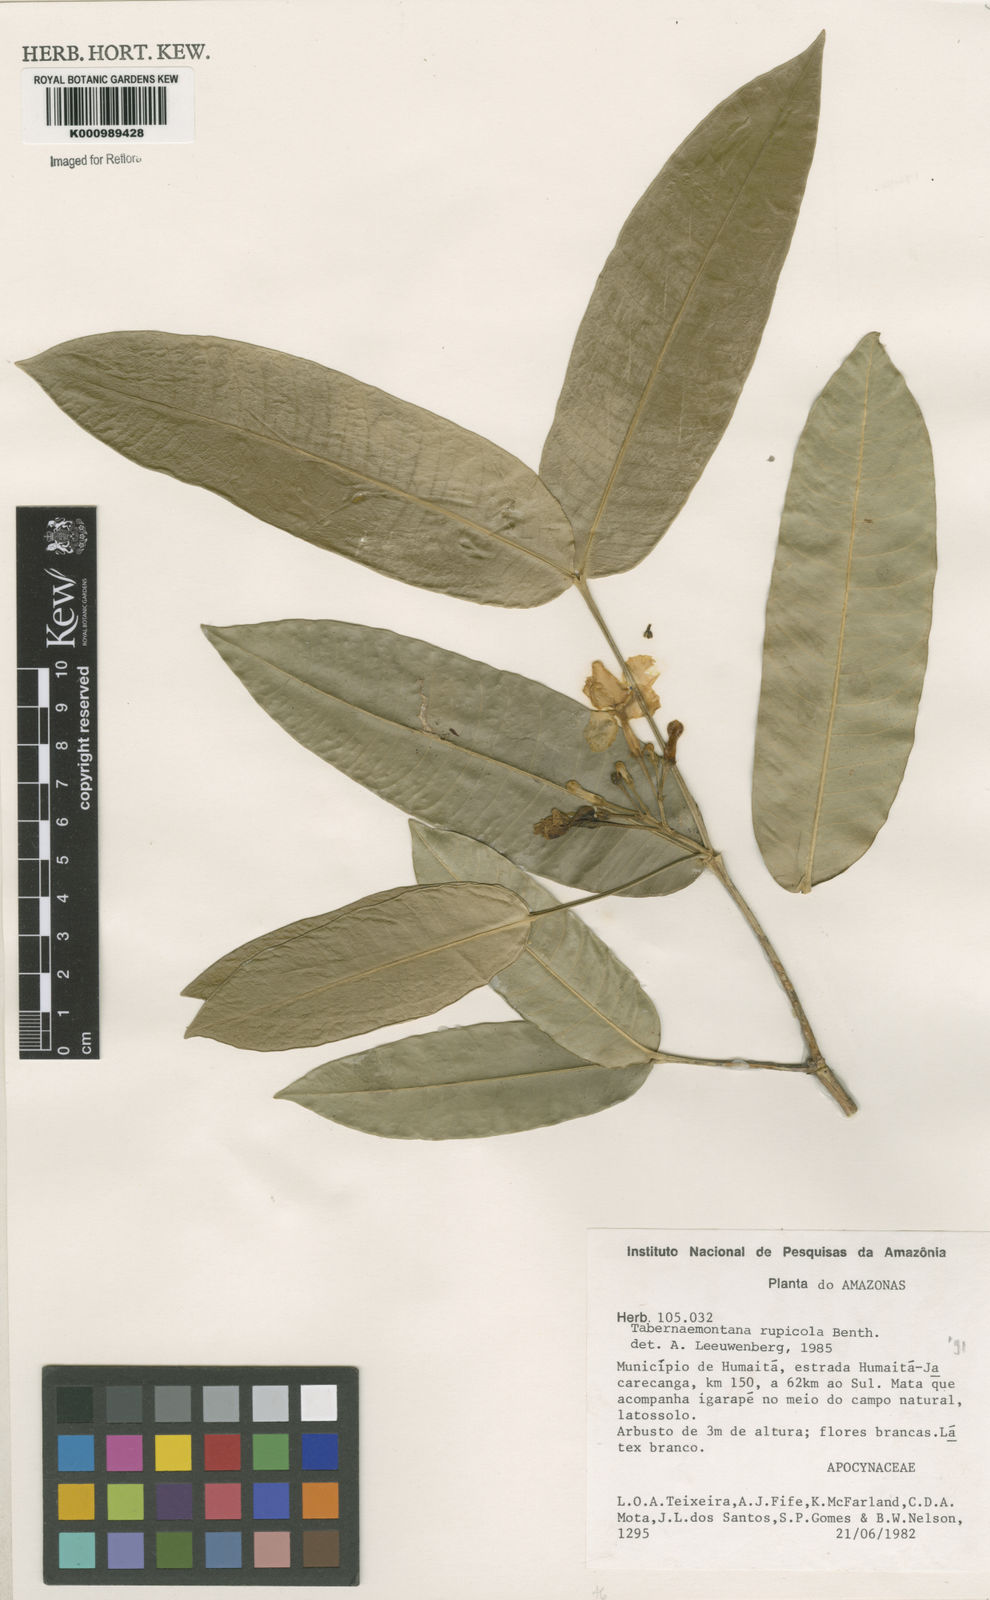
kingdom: Plantae
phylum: Tracheophyta
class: Magnoliopsida
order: Gentianales
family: Apocynaceae
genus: Tabernaemontana
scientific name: Tabernaemontana rupicola
